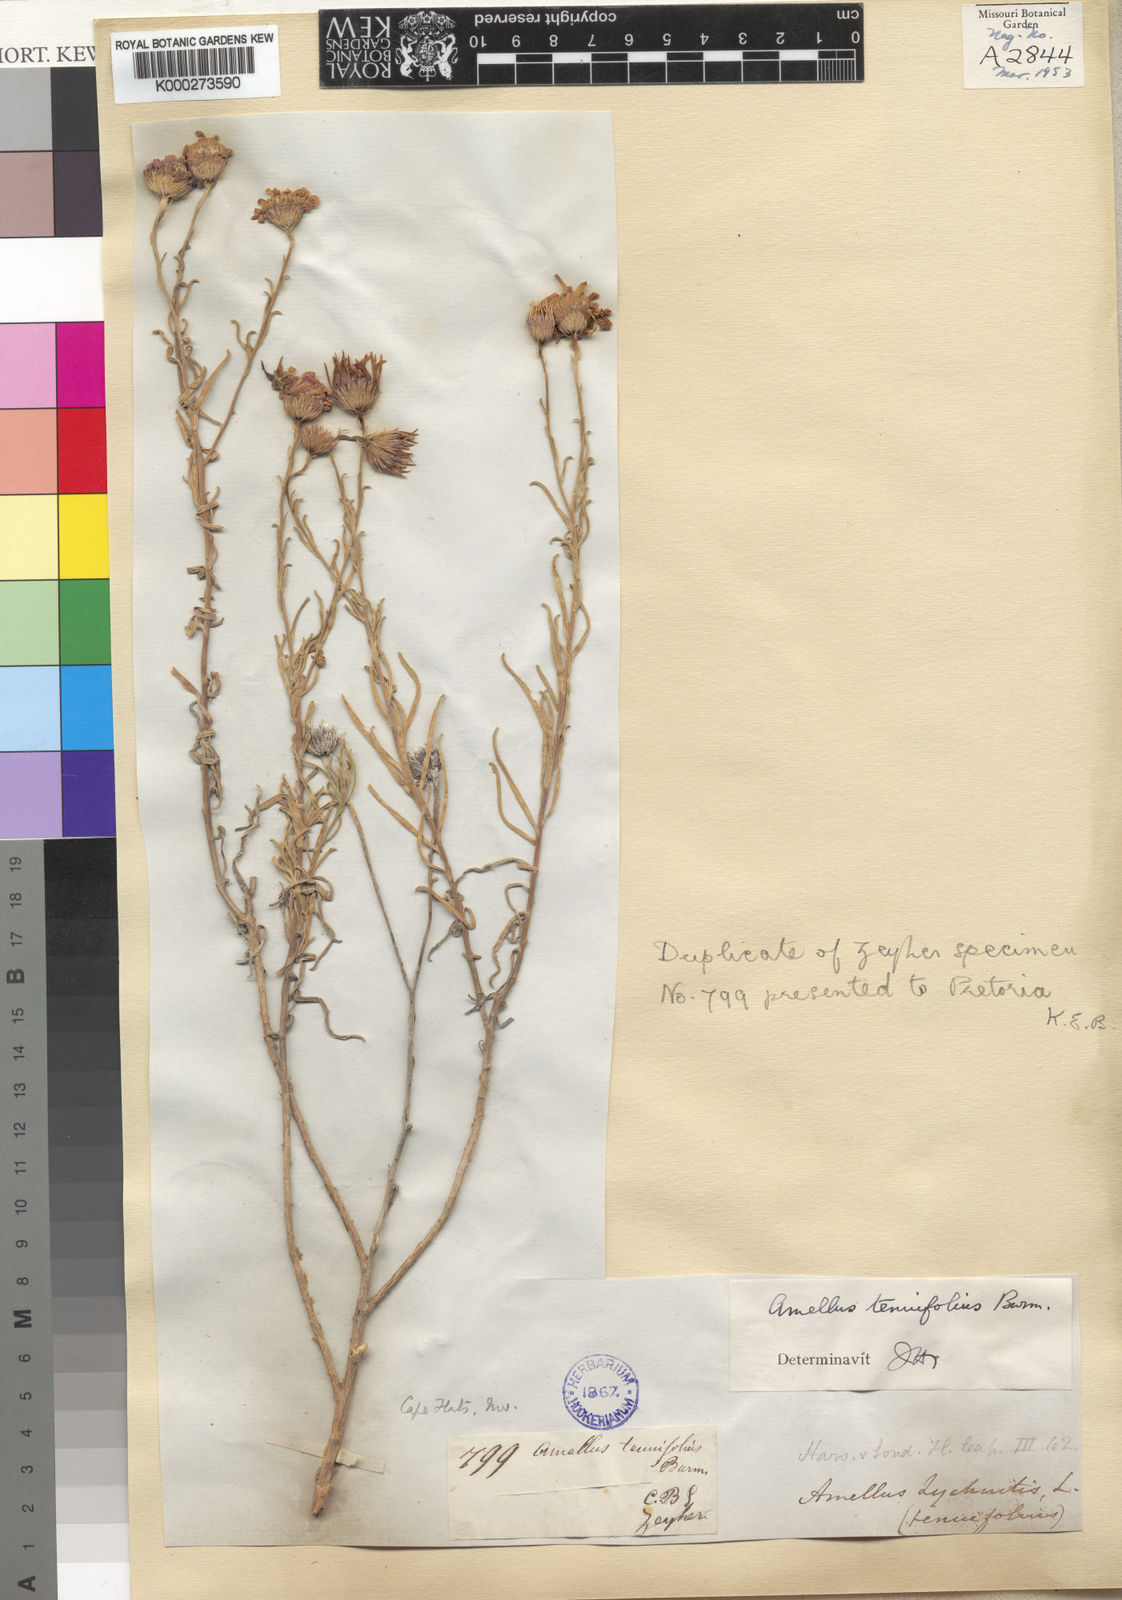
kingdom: Plantae
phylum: Tracheophyta
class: Magnoliopsida
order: Asterales
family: Asteraceae
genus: Amellus
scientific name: Amellus tenuifolius
